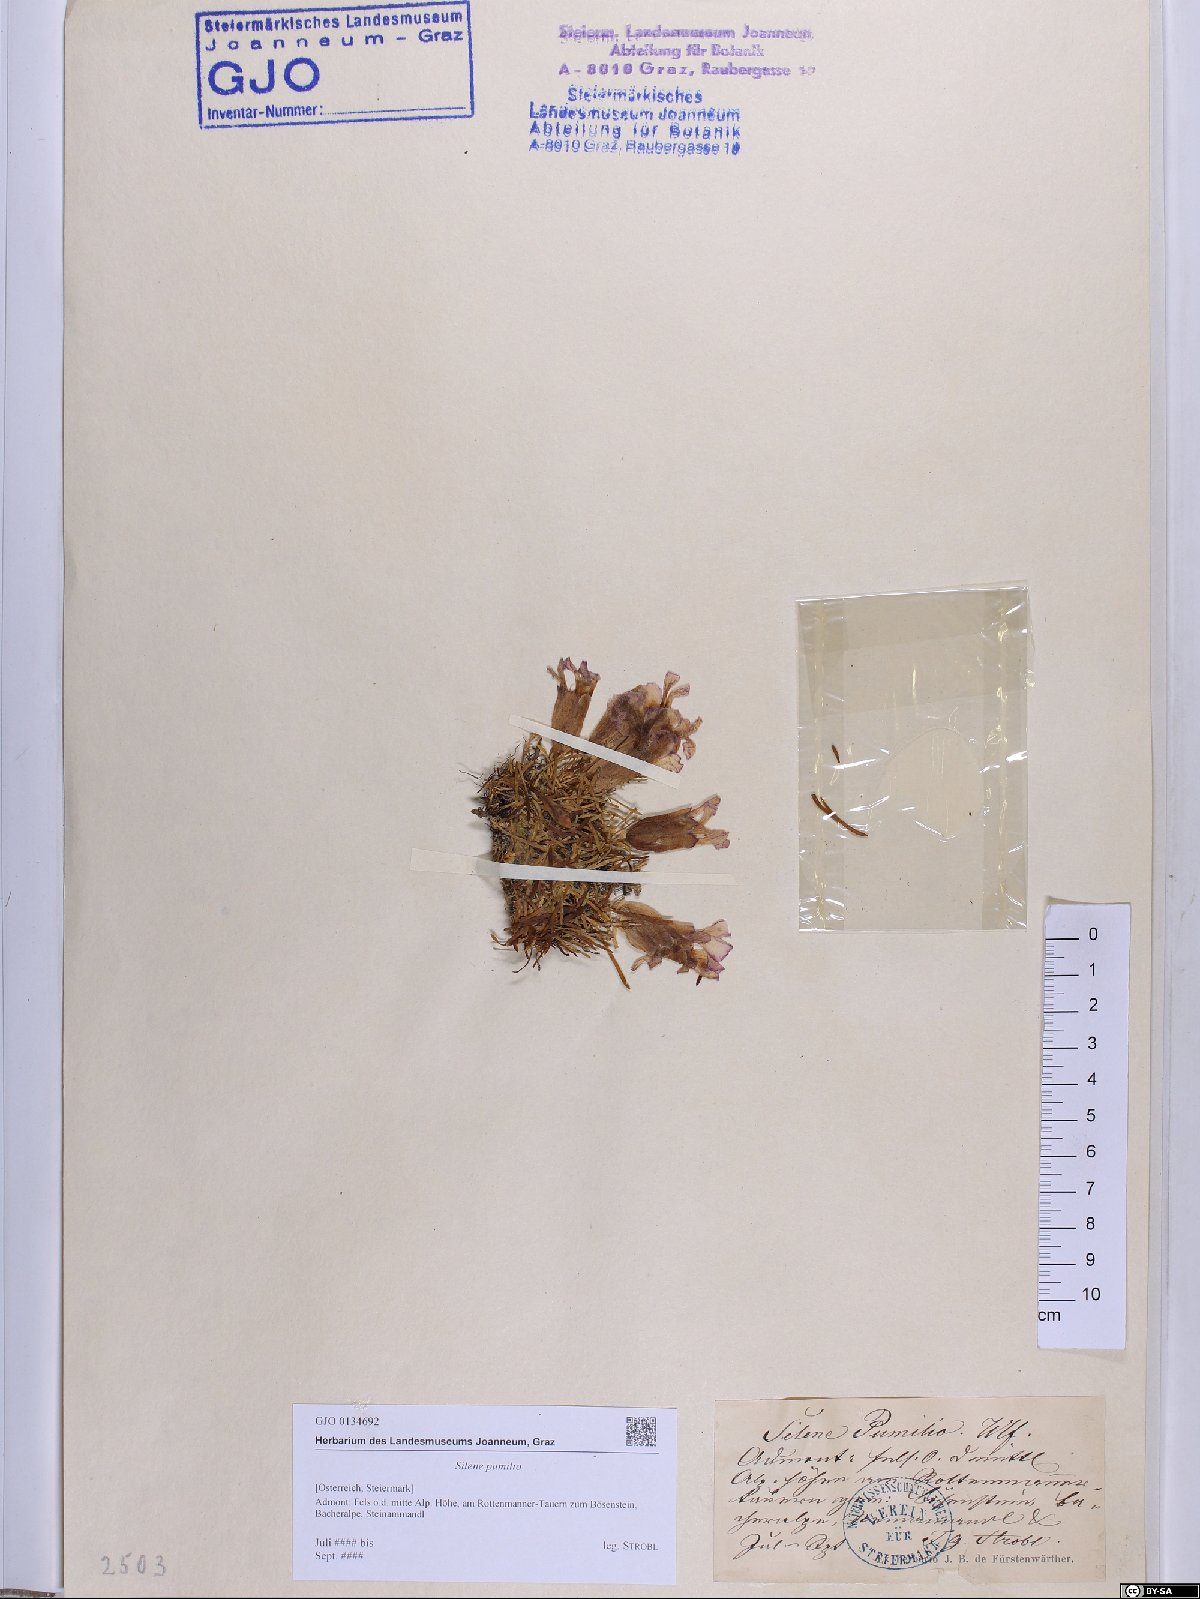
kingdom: Plantae
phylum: Tracheophyta
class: Magnoliopsida
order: Caryophyllales
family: Caryophyllaceae
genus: Saponaria
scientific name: Saponaria pumila
